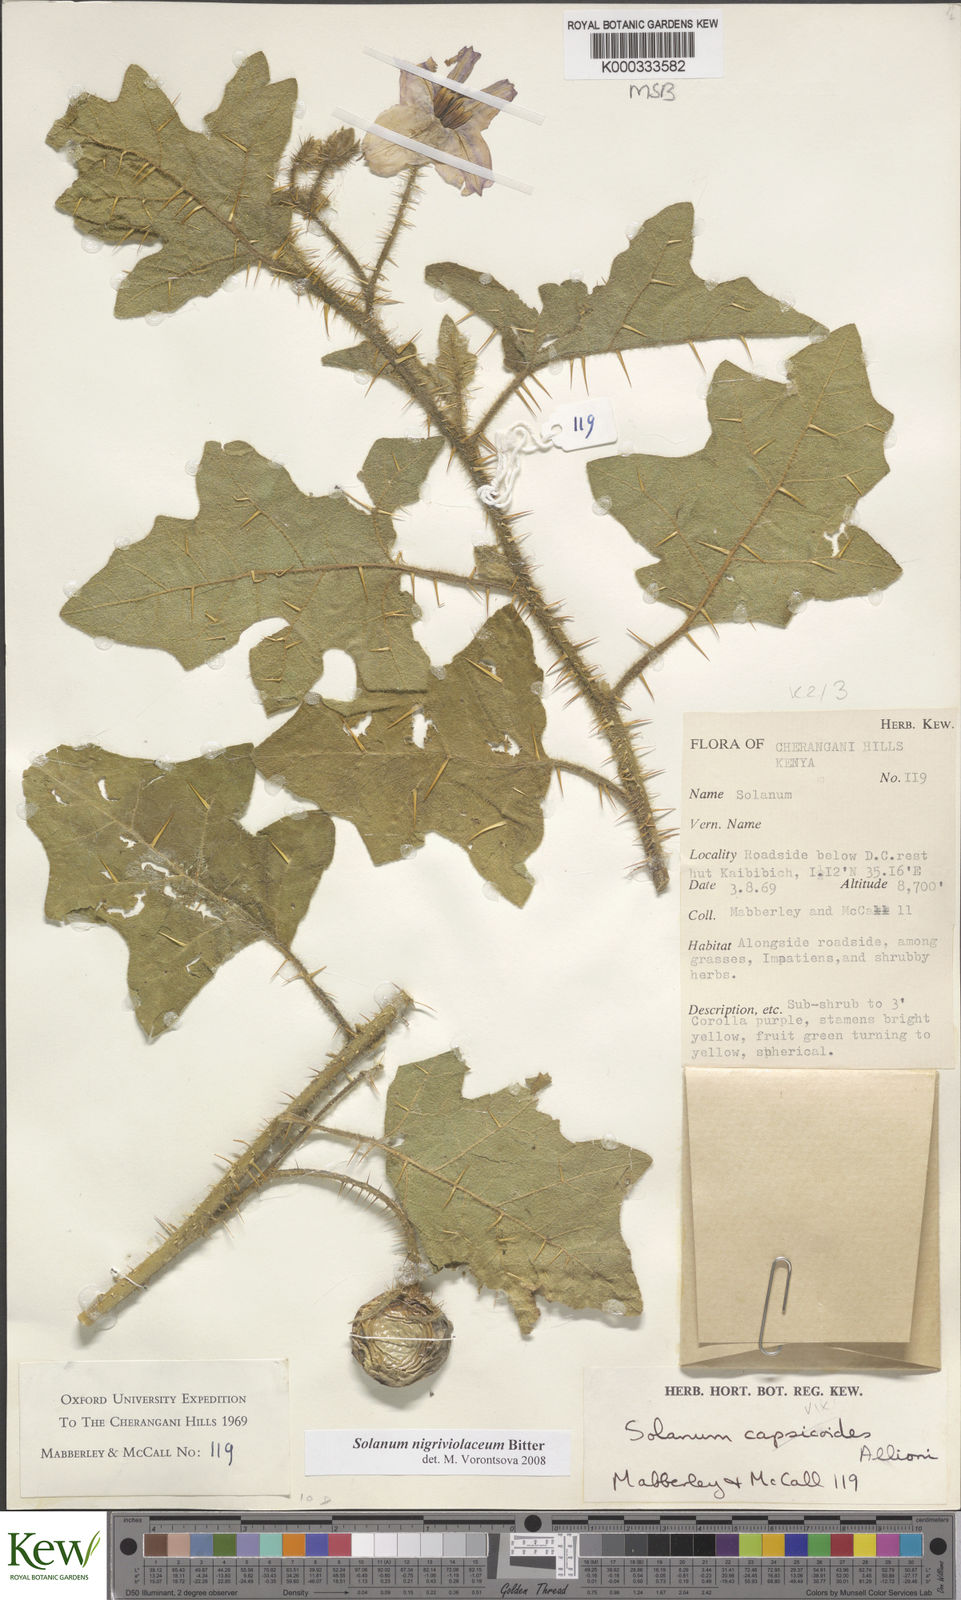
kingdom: Plantae
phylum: Tracheophyta
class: Magnoliopsida
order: Solanales
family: Solanaceae
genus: Solanum
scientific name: Solanum nigriviolaceum
